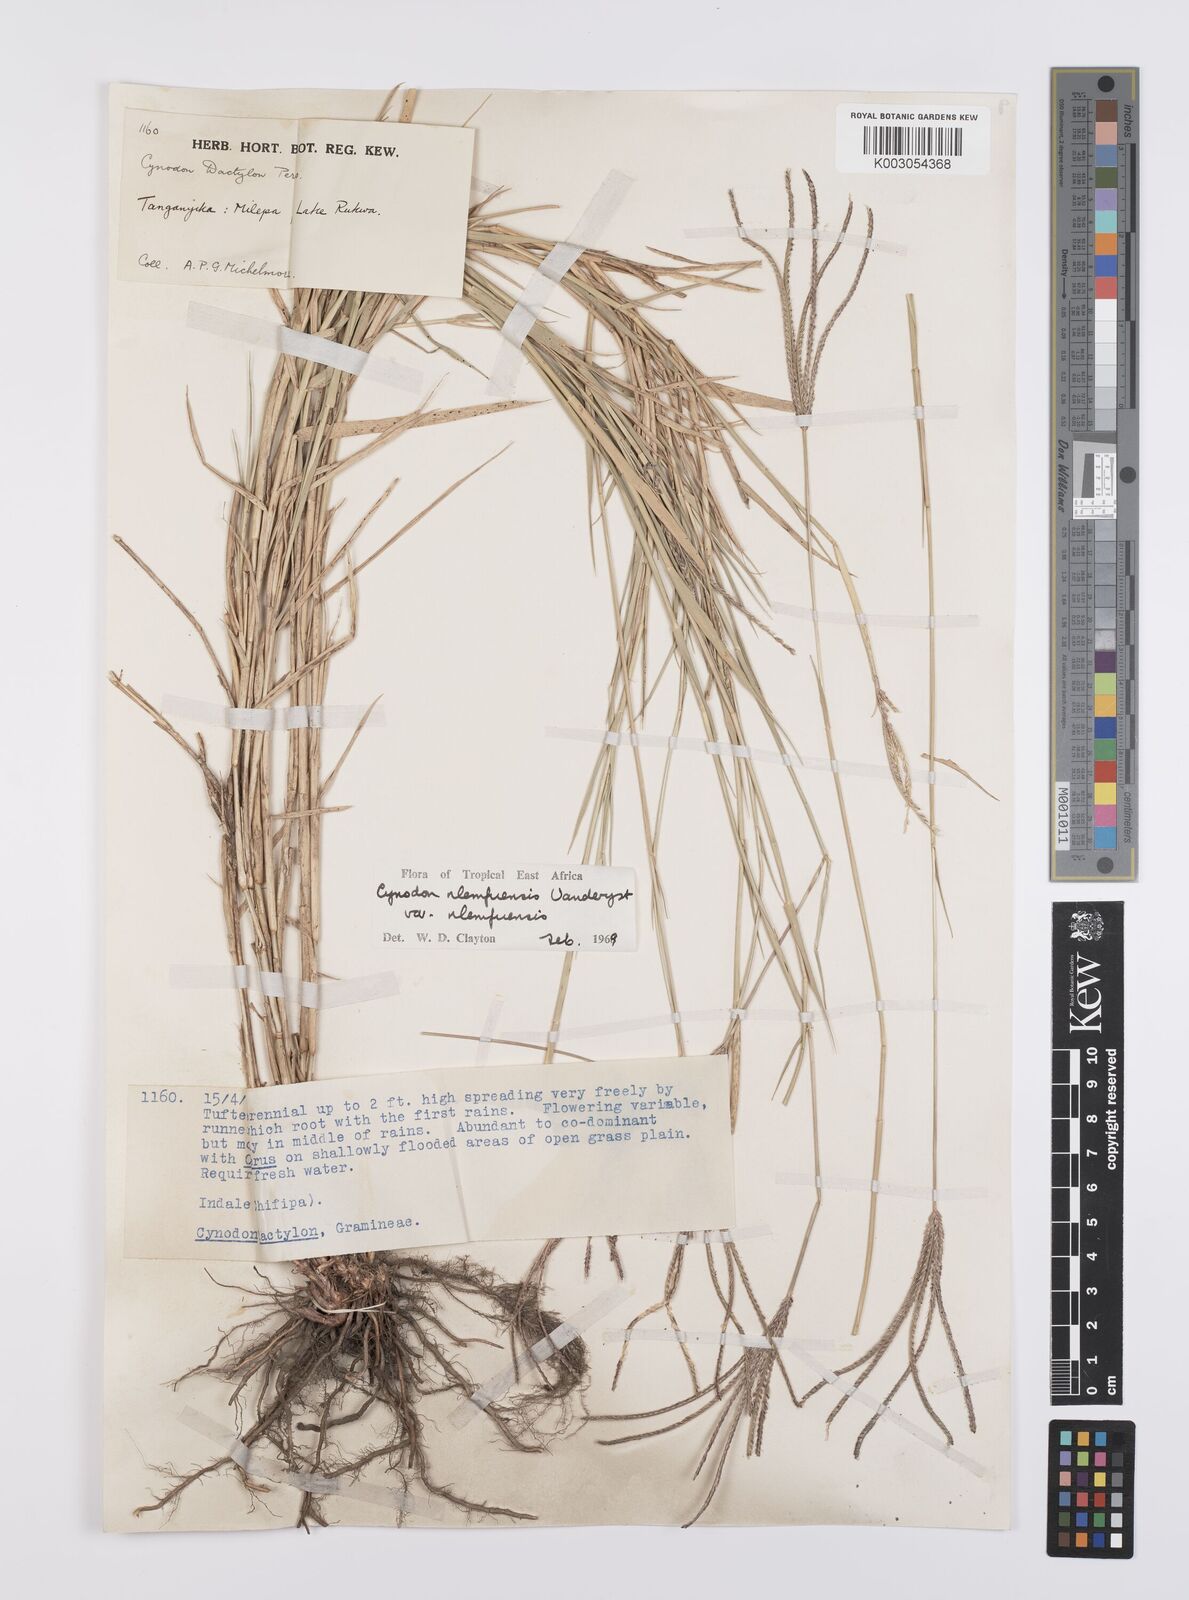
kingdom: Plantae
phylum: Tracheophyta
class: Liliopsida
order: Poales
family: Poaceae
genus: Cynodon
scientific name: Cynodon nlemfuensis
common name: African bermudagrass
